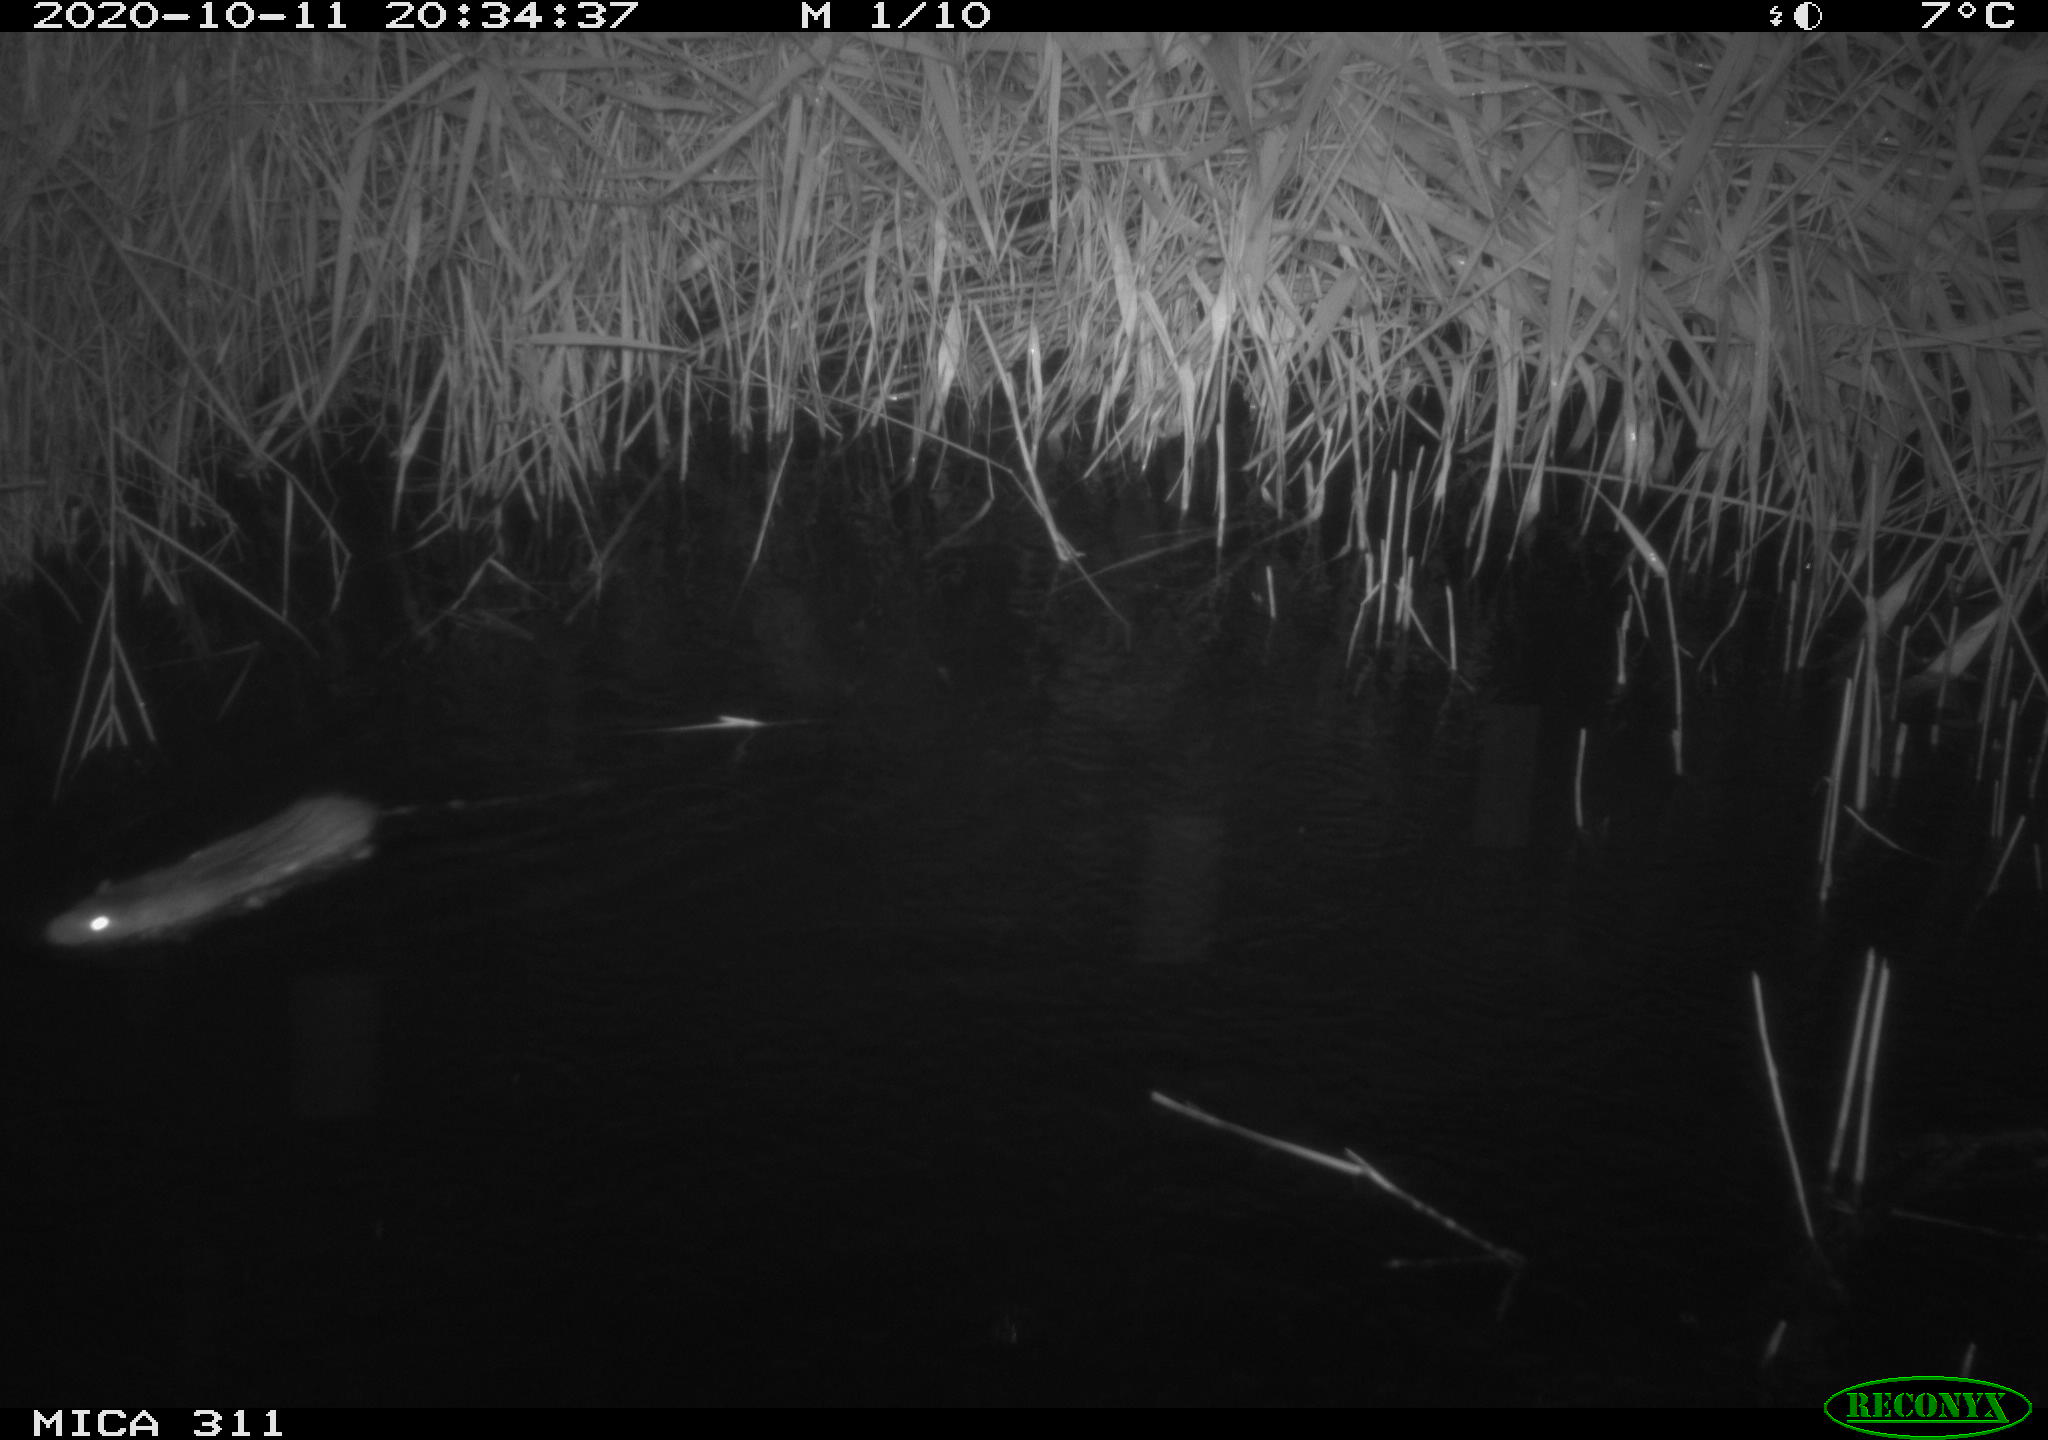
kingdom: Animalia
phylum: Chordata
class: Mammalia
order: Rodentia
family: Muridae
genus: Rattus
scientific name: Rattus norvegicus
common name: Brown rat
